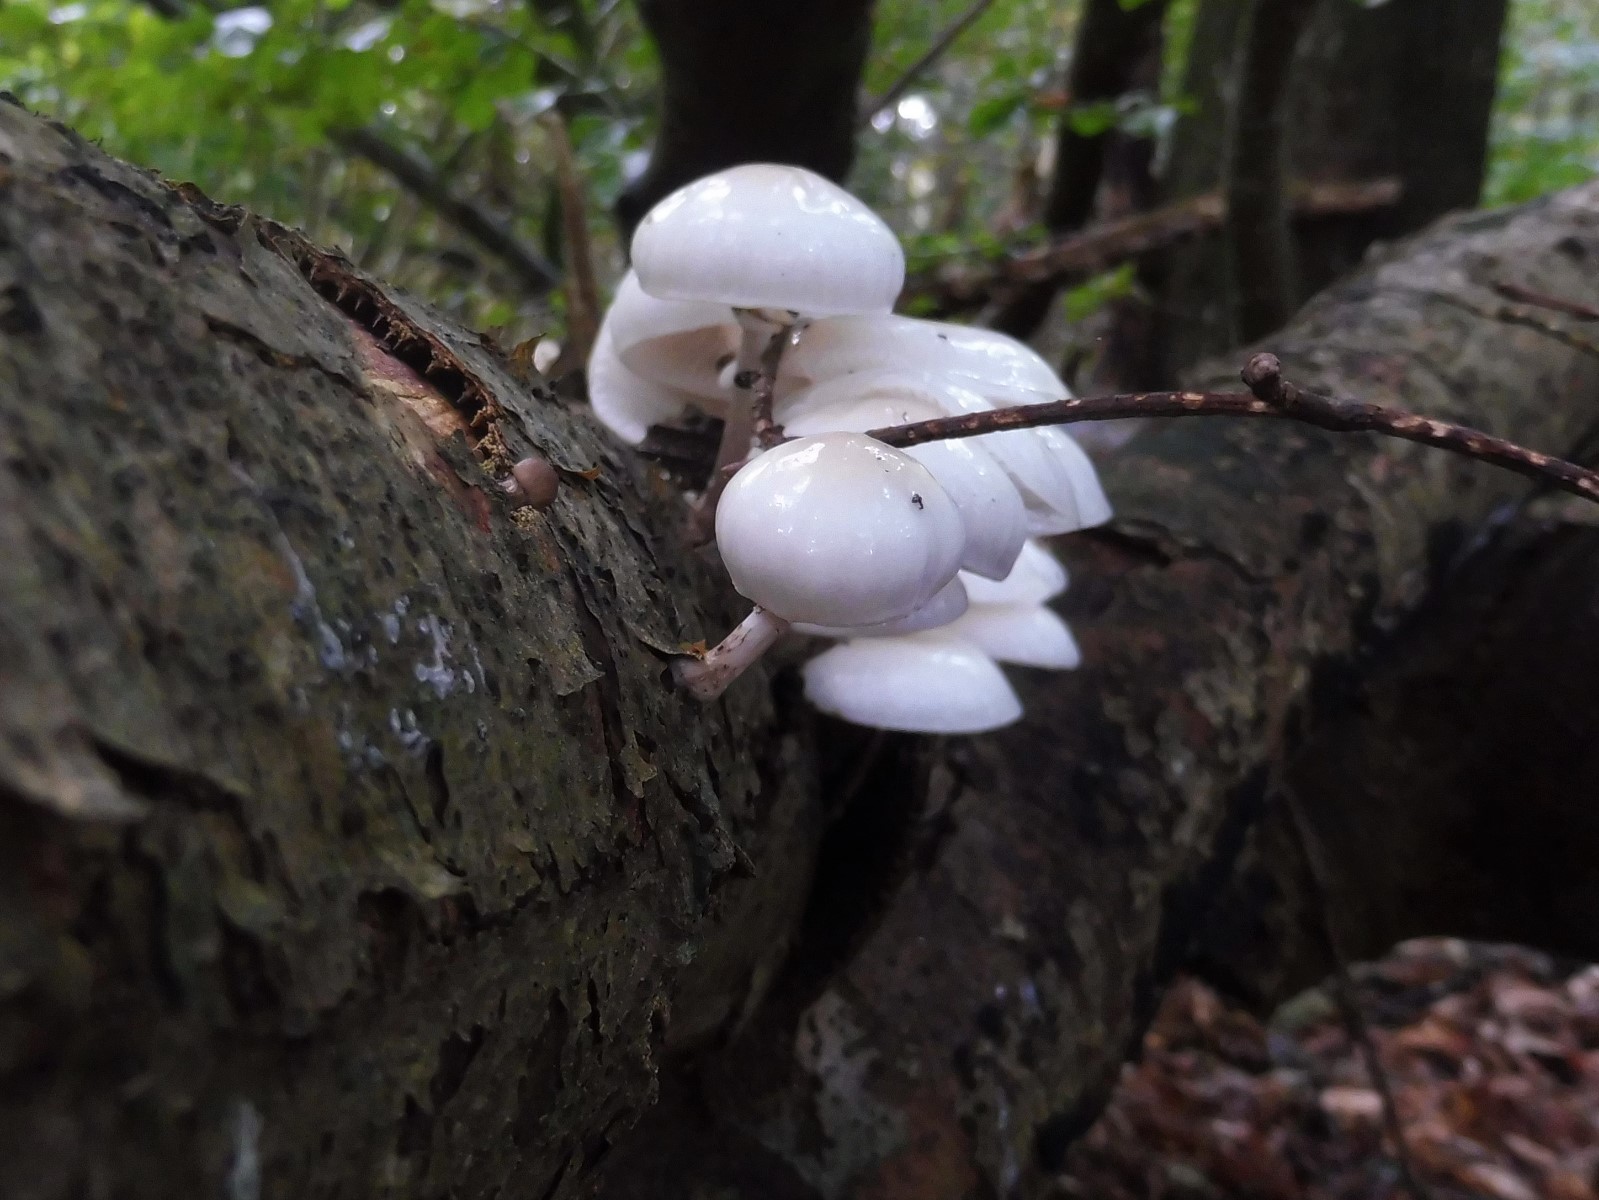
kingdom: Fungi
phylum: Basidiomycota
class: Agaricomycetes
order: Agaricales
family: Physalacriaceae
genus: Mucidula
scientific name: Mucidula mucida
